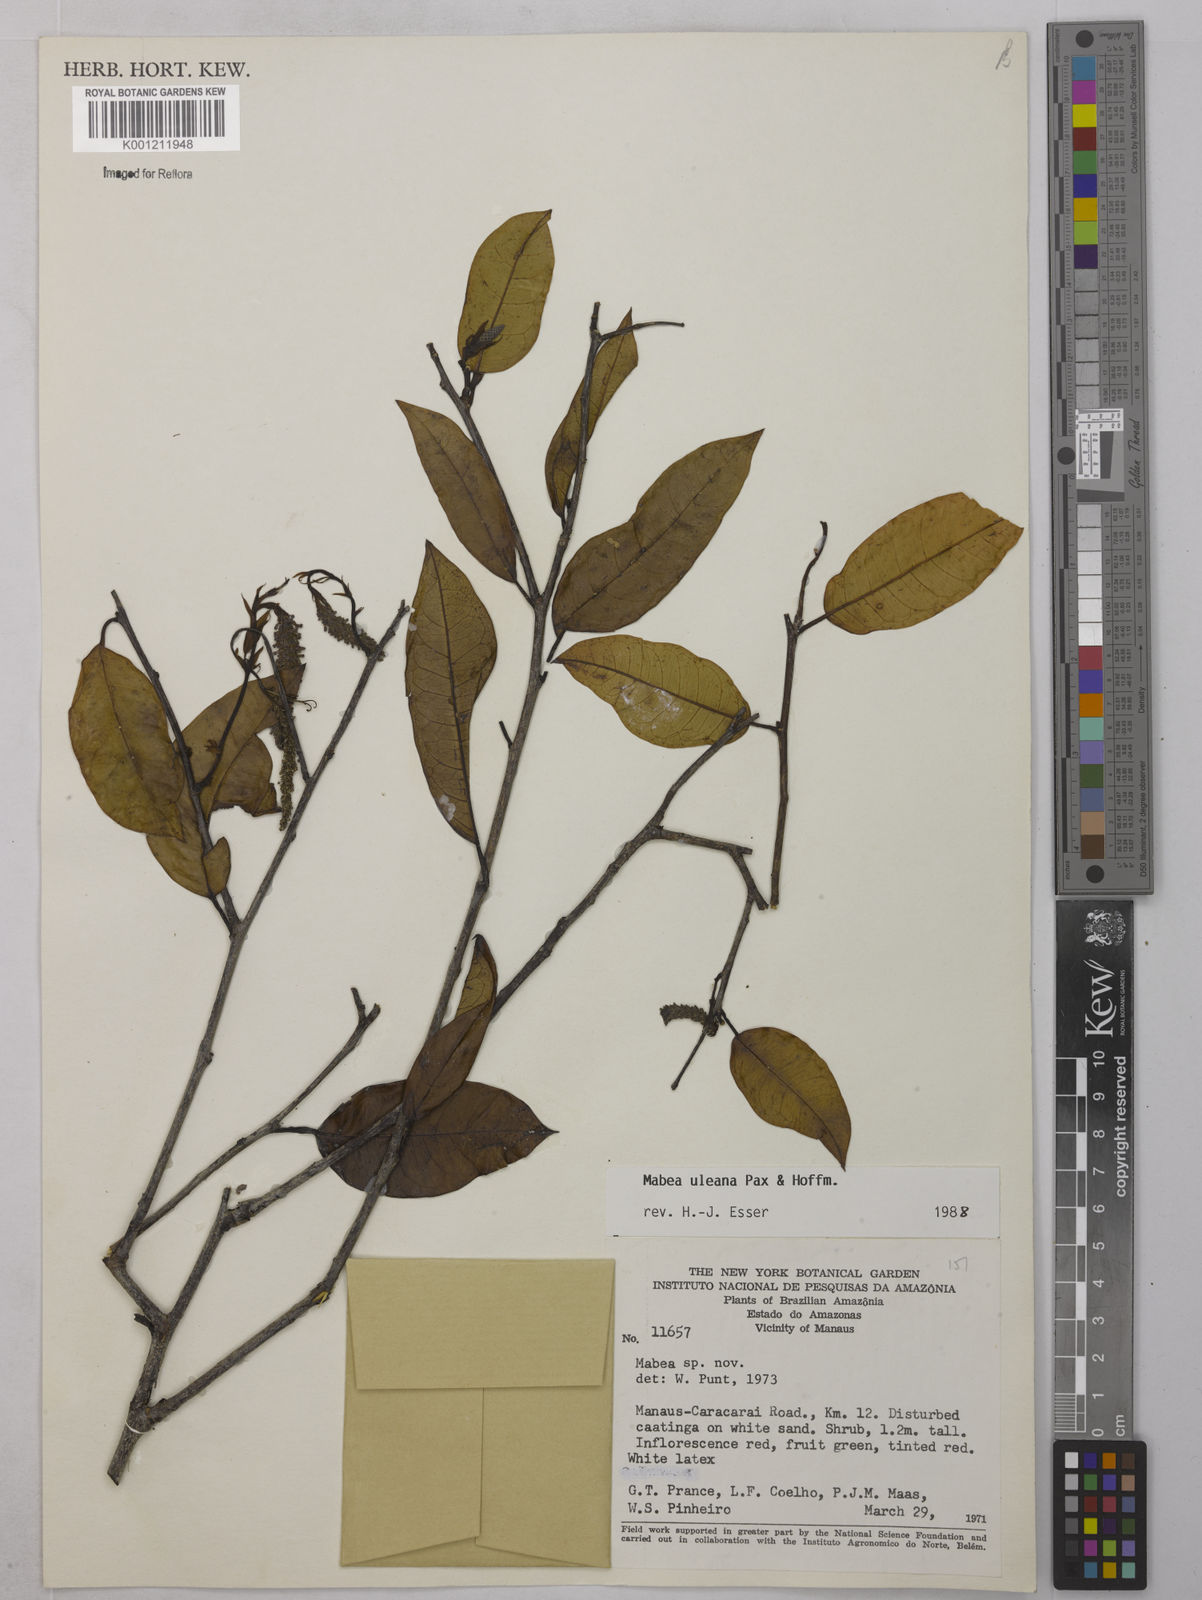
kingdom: Plantae
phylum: Tracheophyta
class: Magnoliopsida
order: Malpighiales
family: Euphorbiaceae
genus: Mabea
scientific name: Mabea uleana
